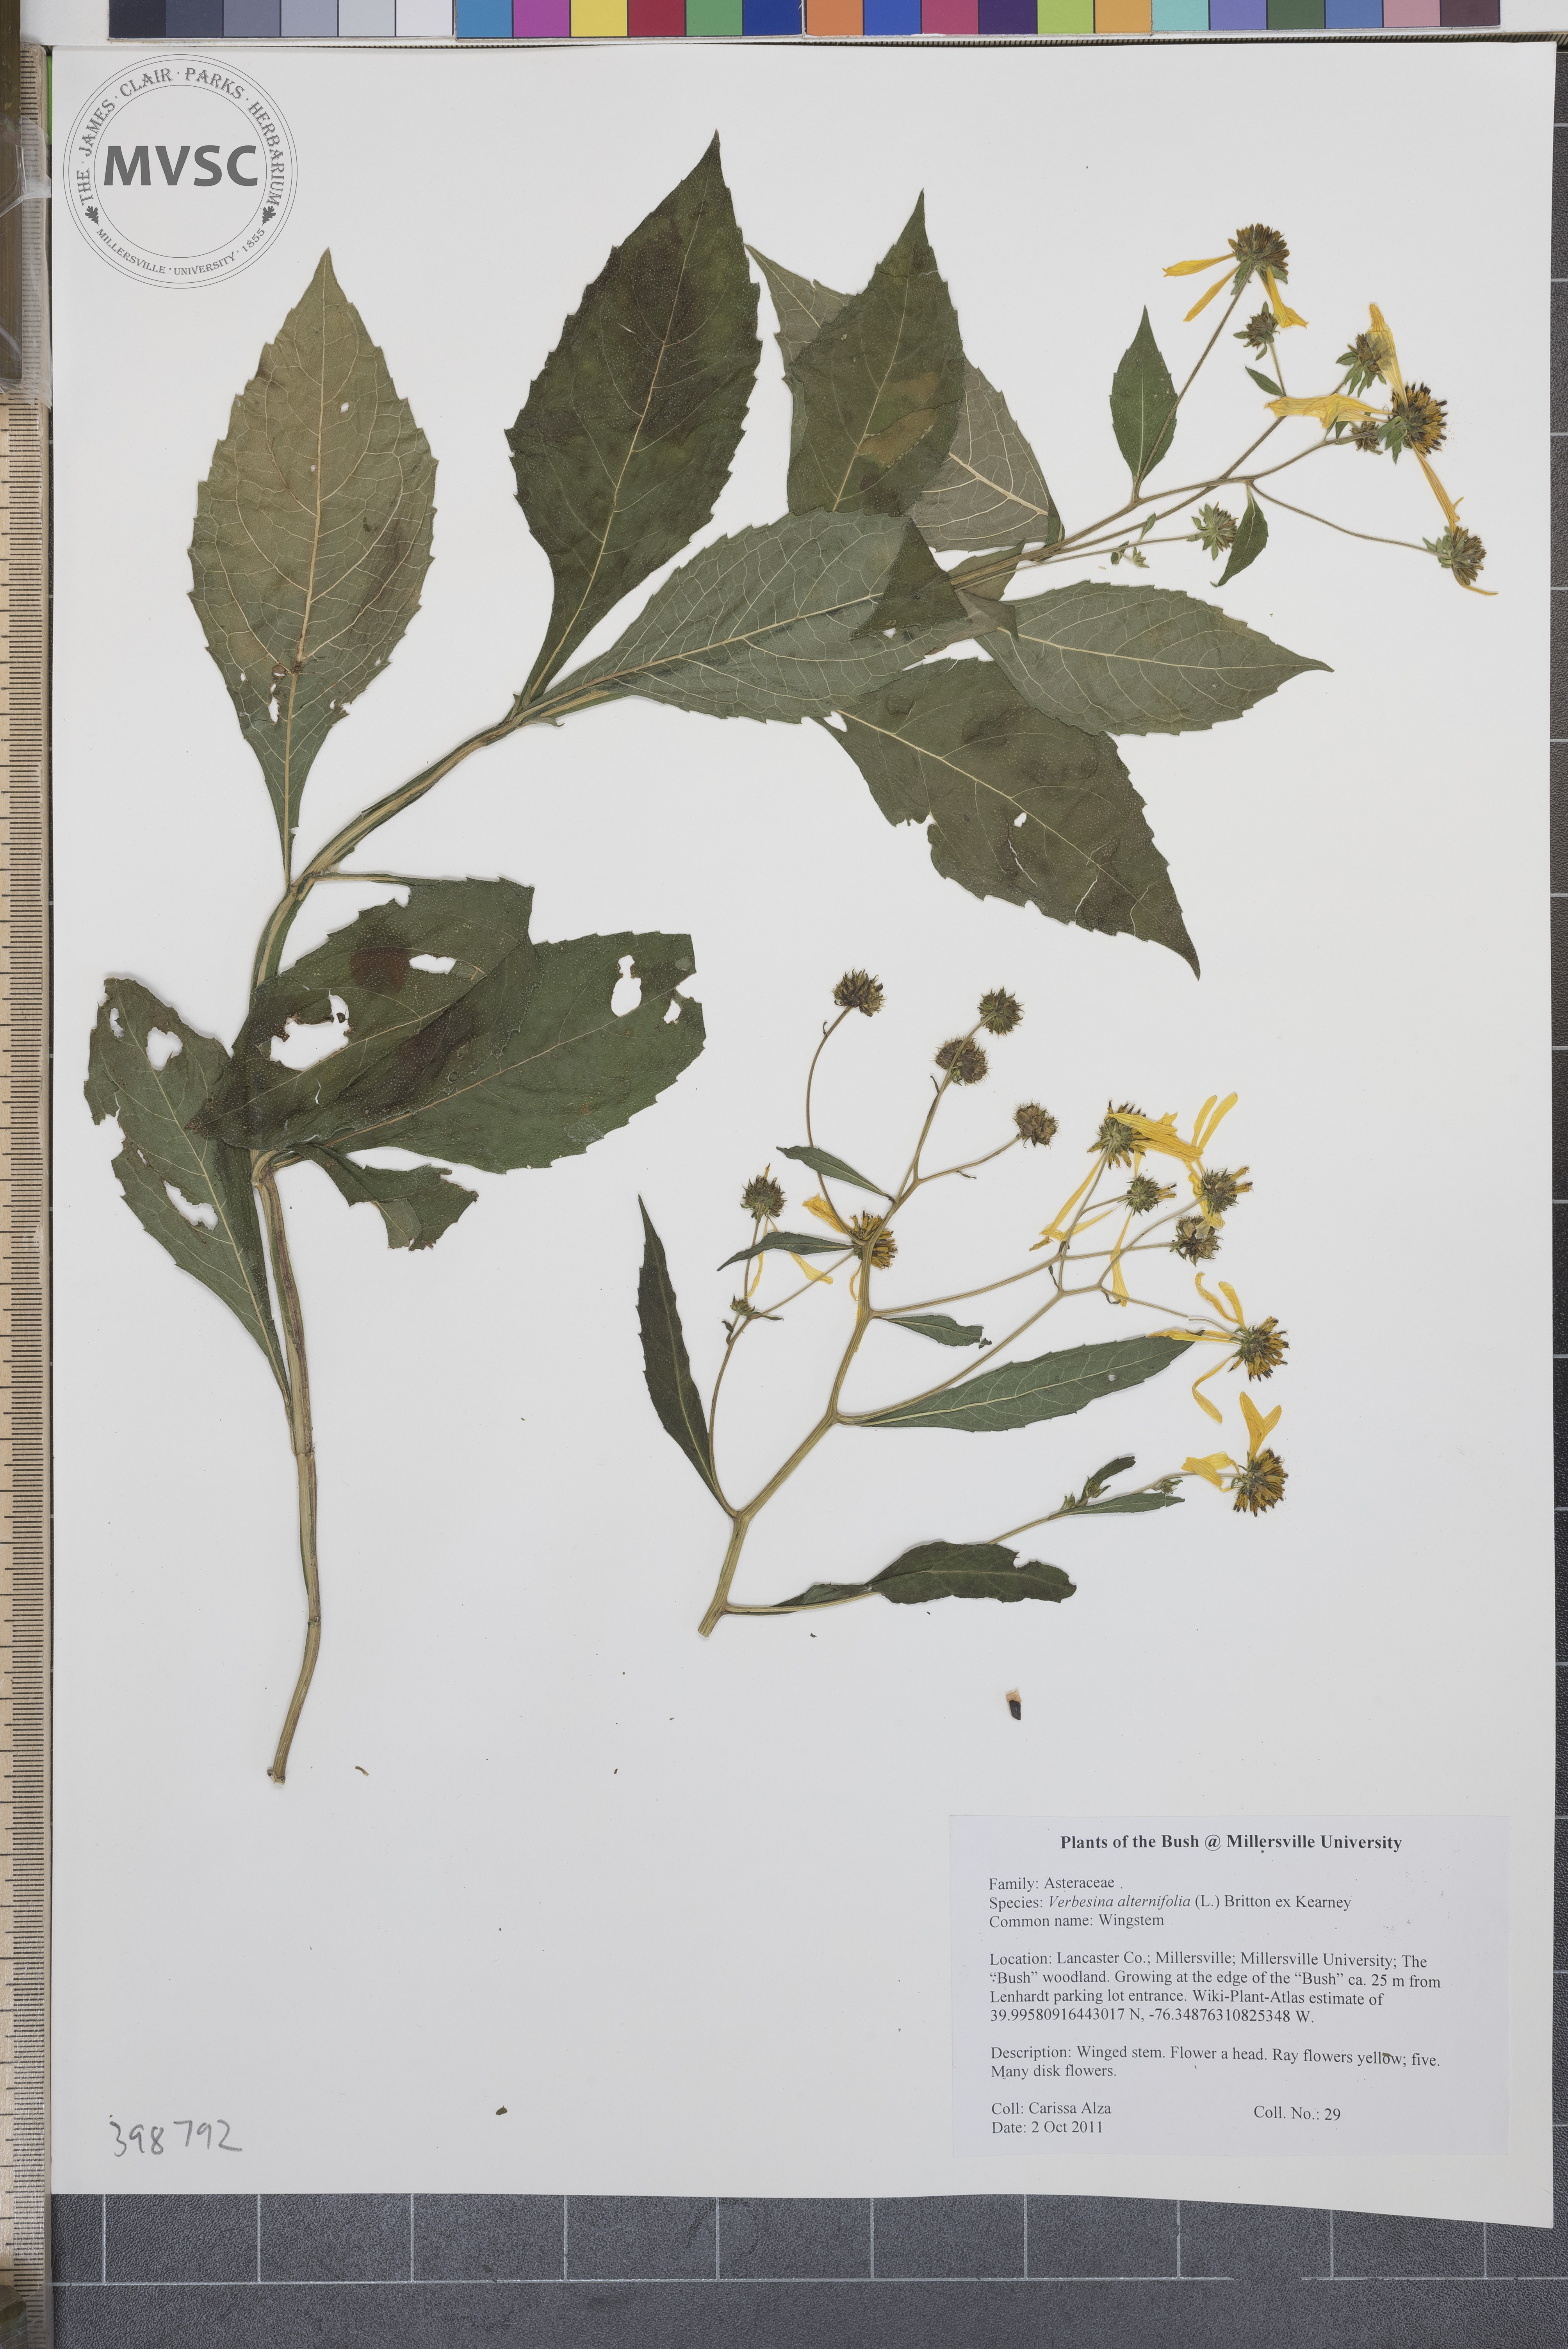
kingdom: Plantae
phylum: Tracheophyta
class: Magnoliopsida
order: Asterales
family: Asteraceae
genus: Verbesina
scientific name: Verbesina alternifolia
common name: Wingstem
